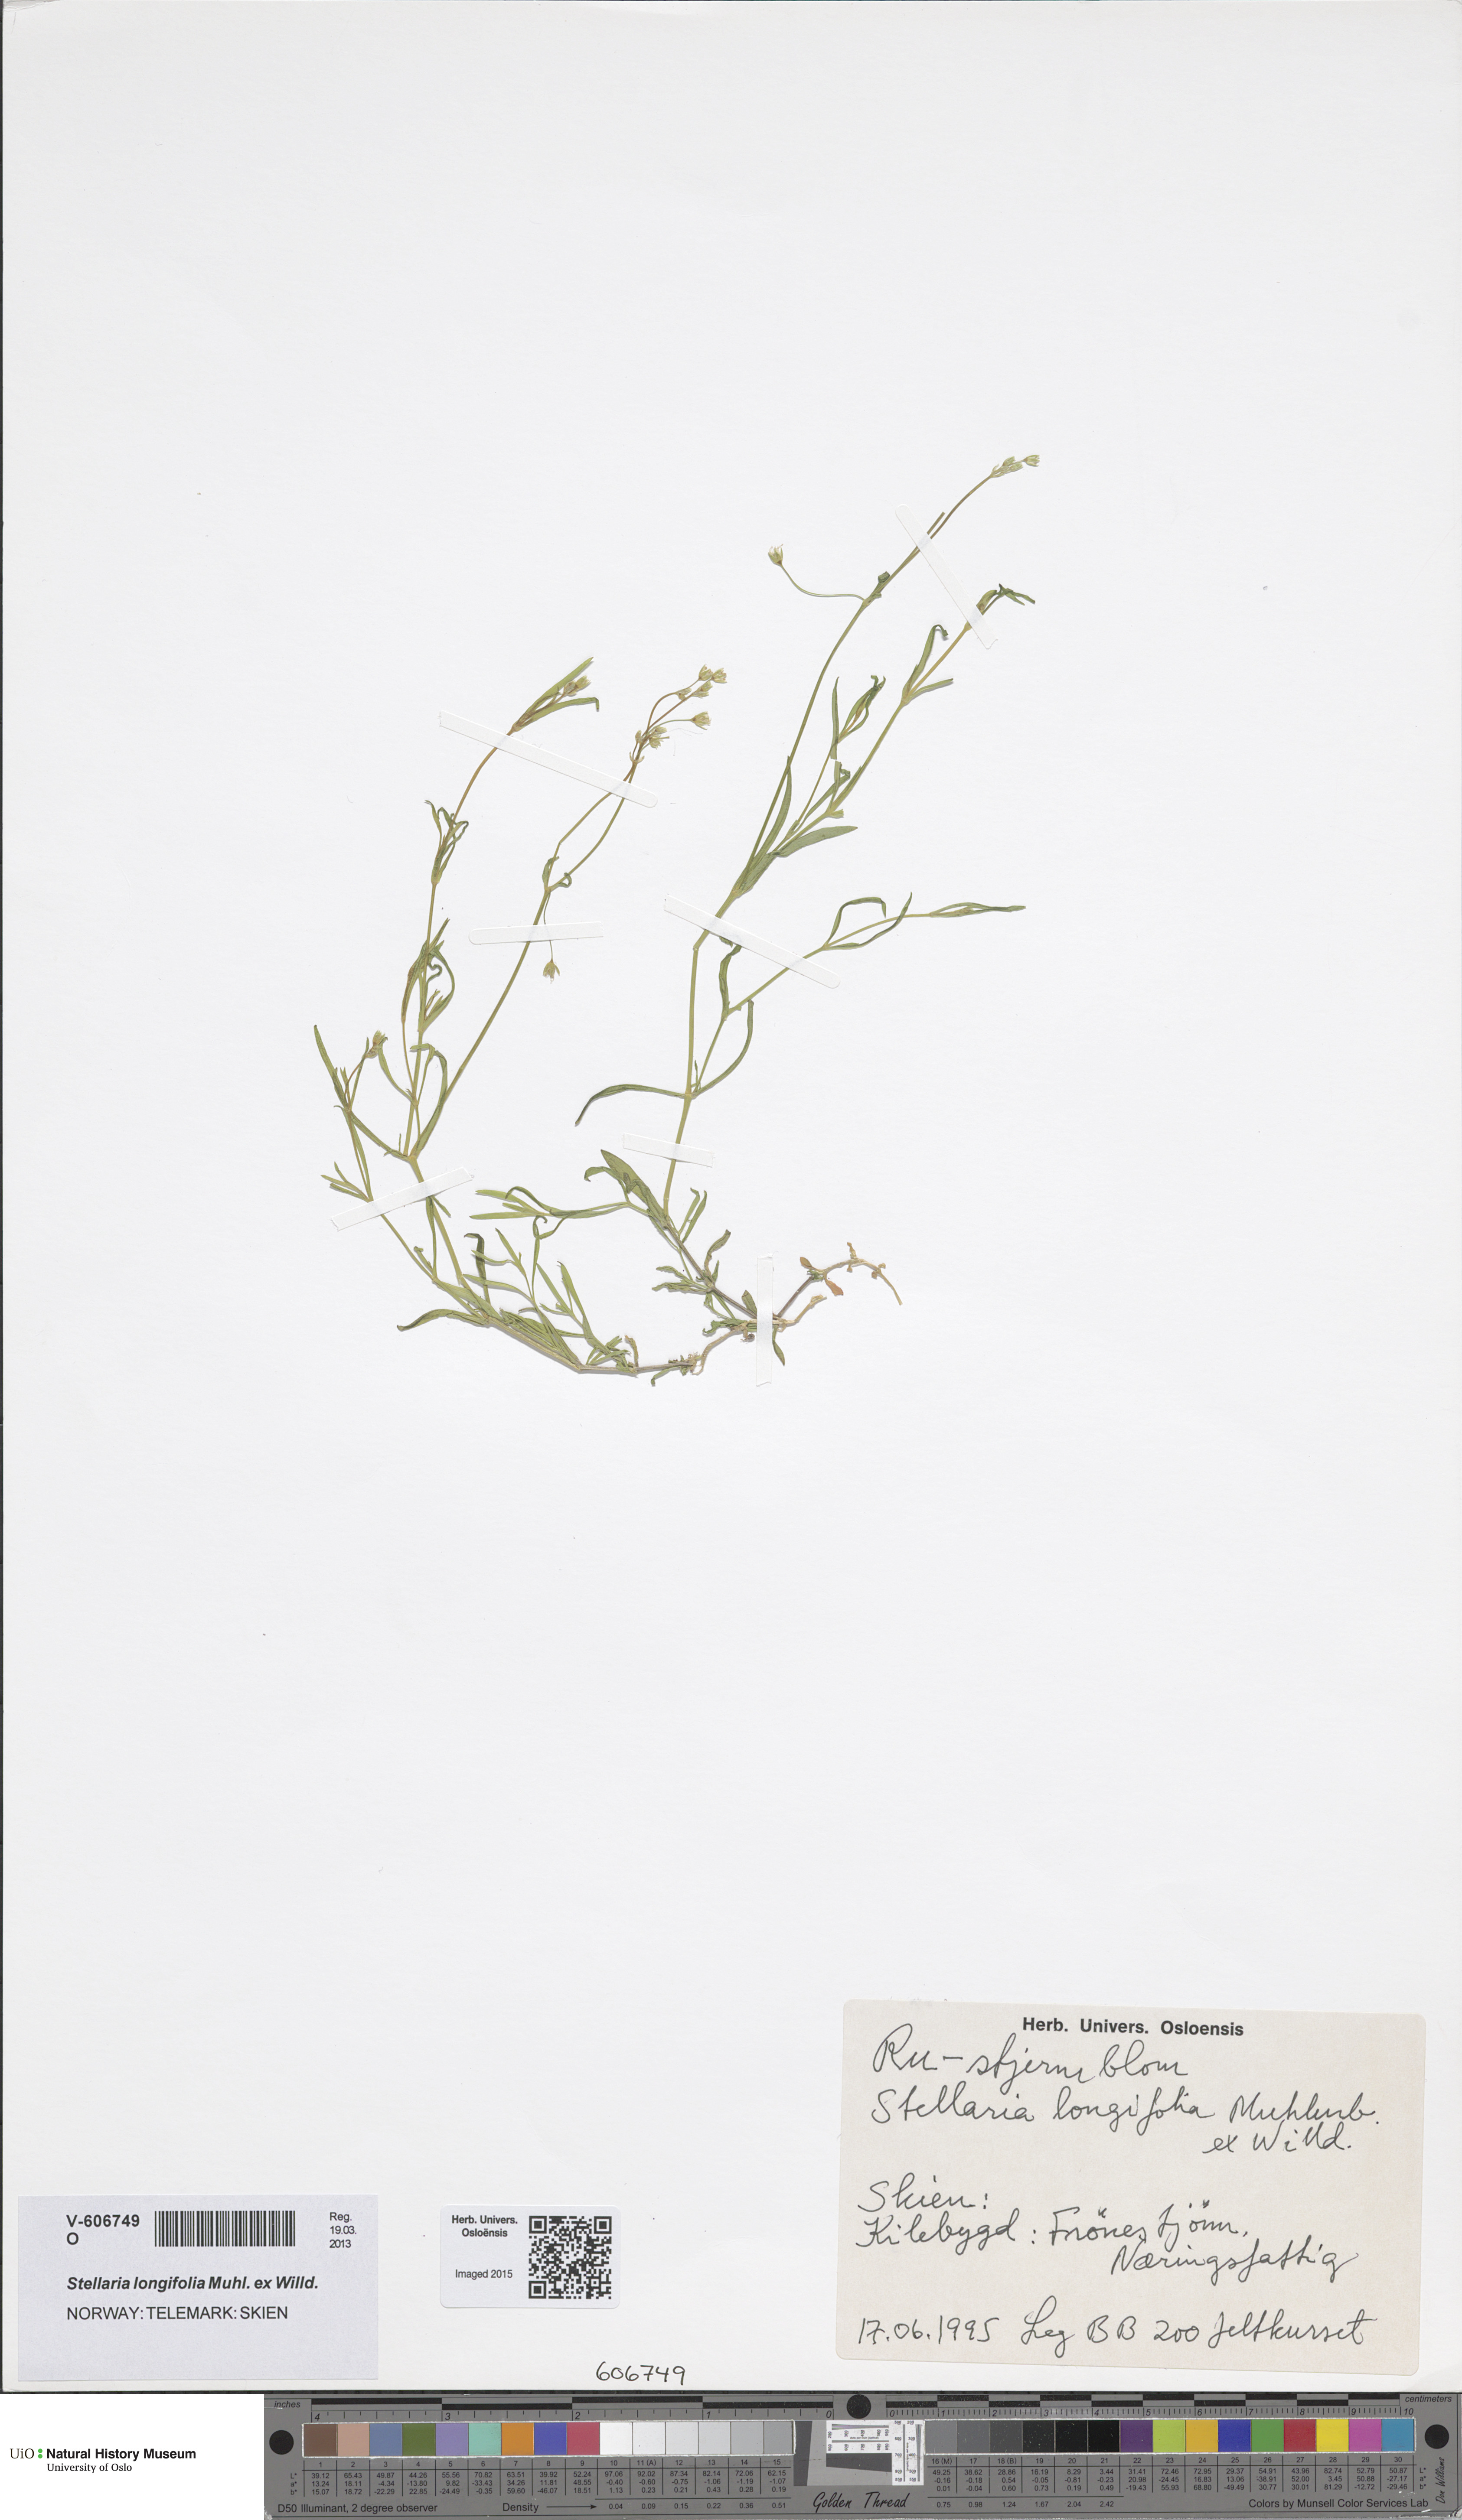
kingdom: Plantae
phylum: Tracheophyta
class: Magnoliopsida
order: Caryophyllales
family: Caryophyllaceae
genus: Stellaria
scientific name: Stellaria longifolia
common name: Long-leaved chickweed
